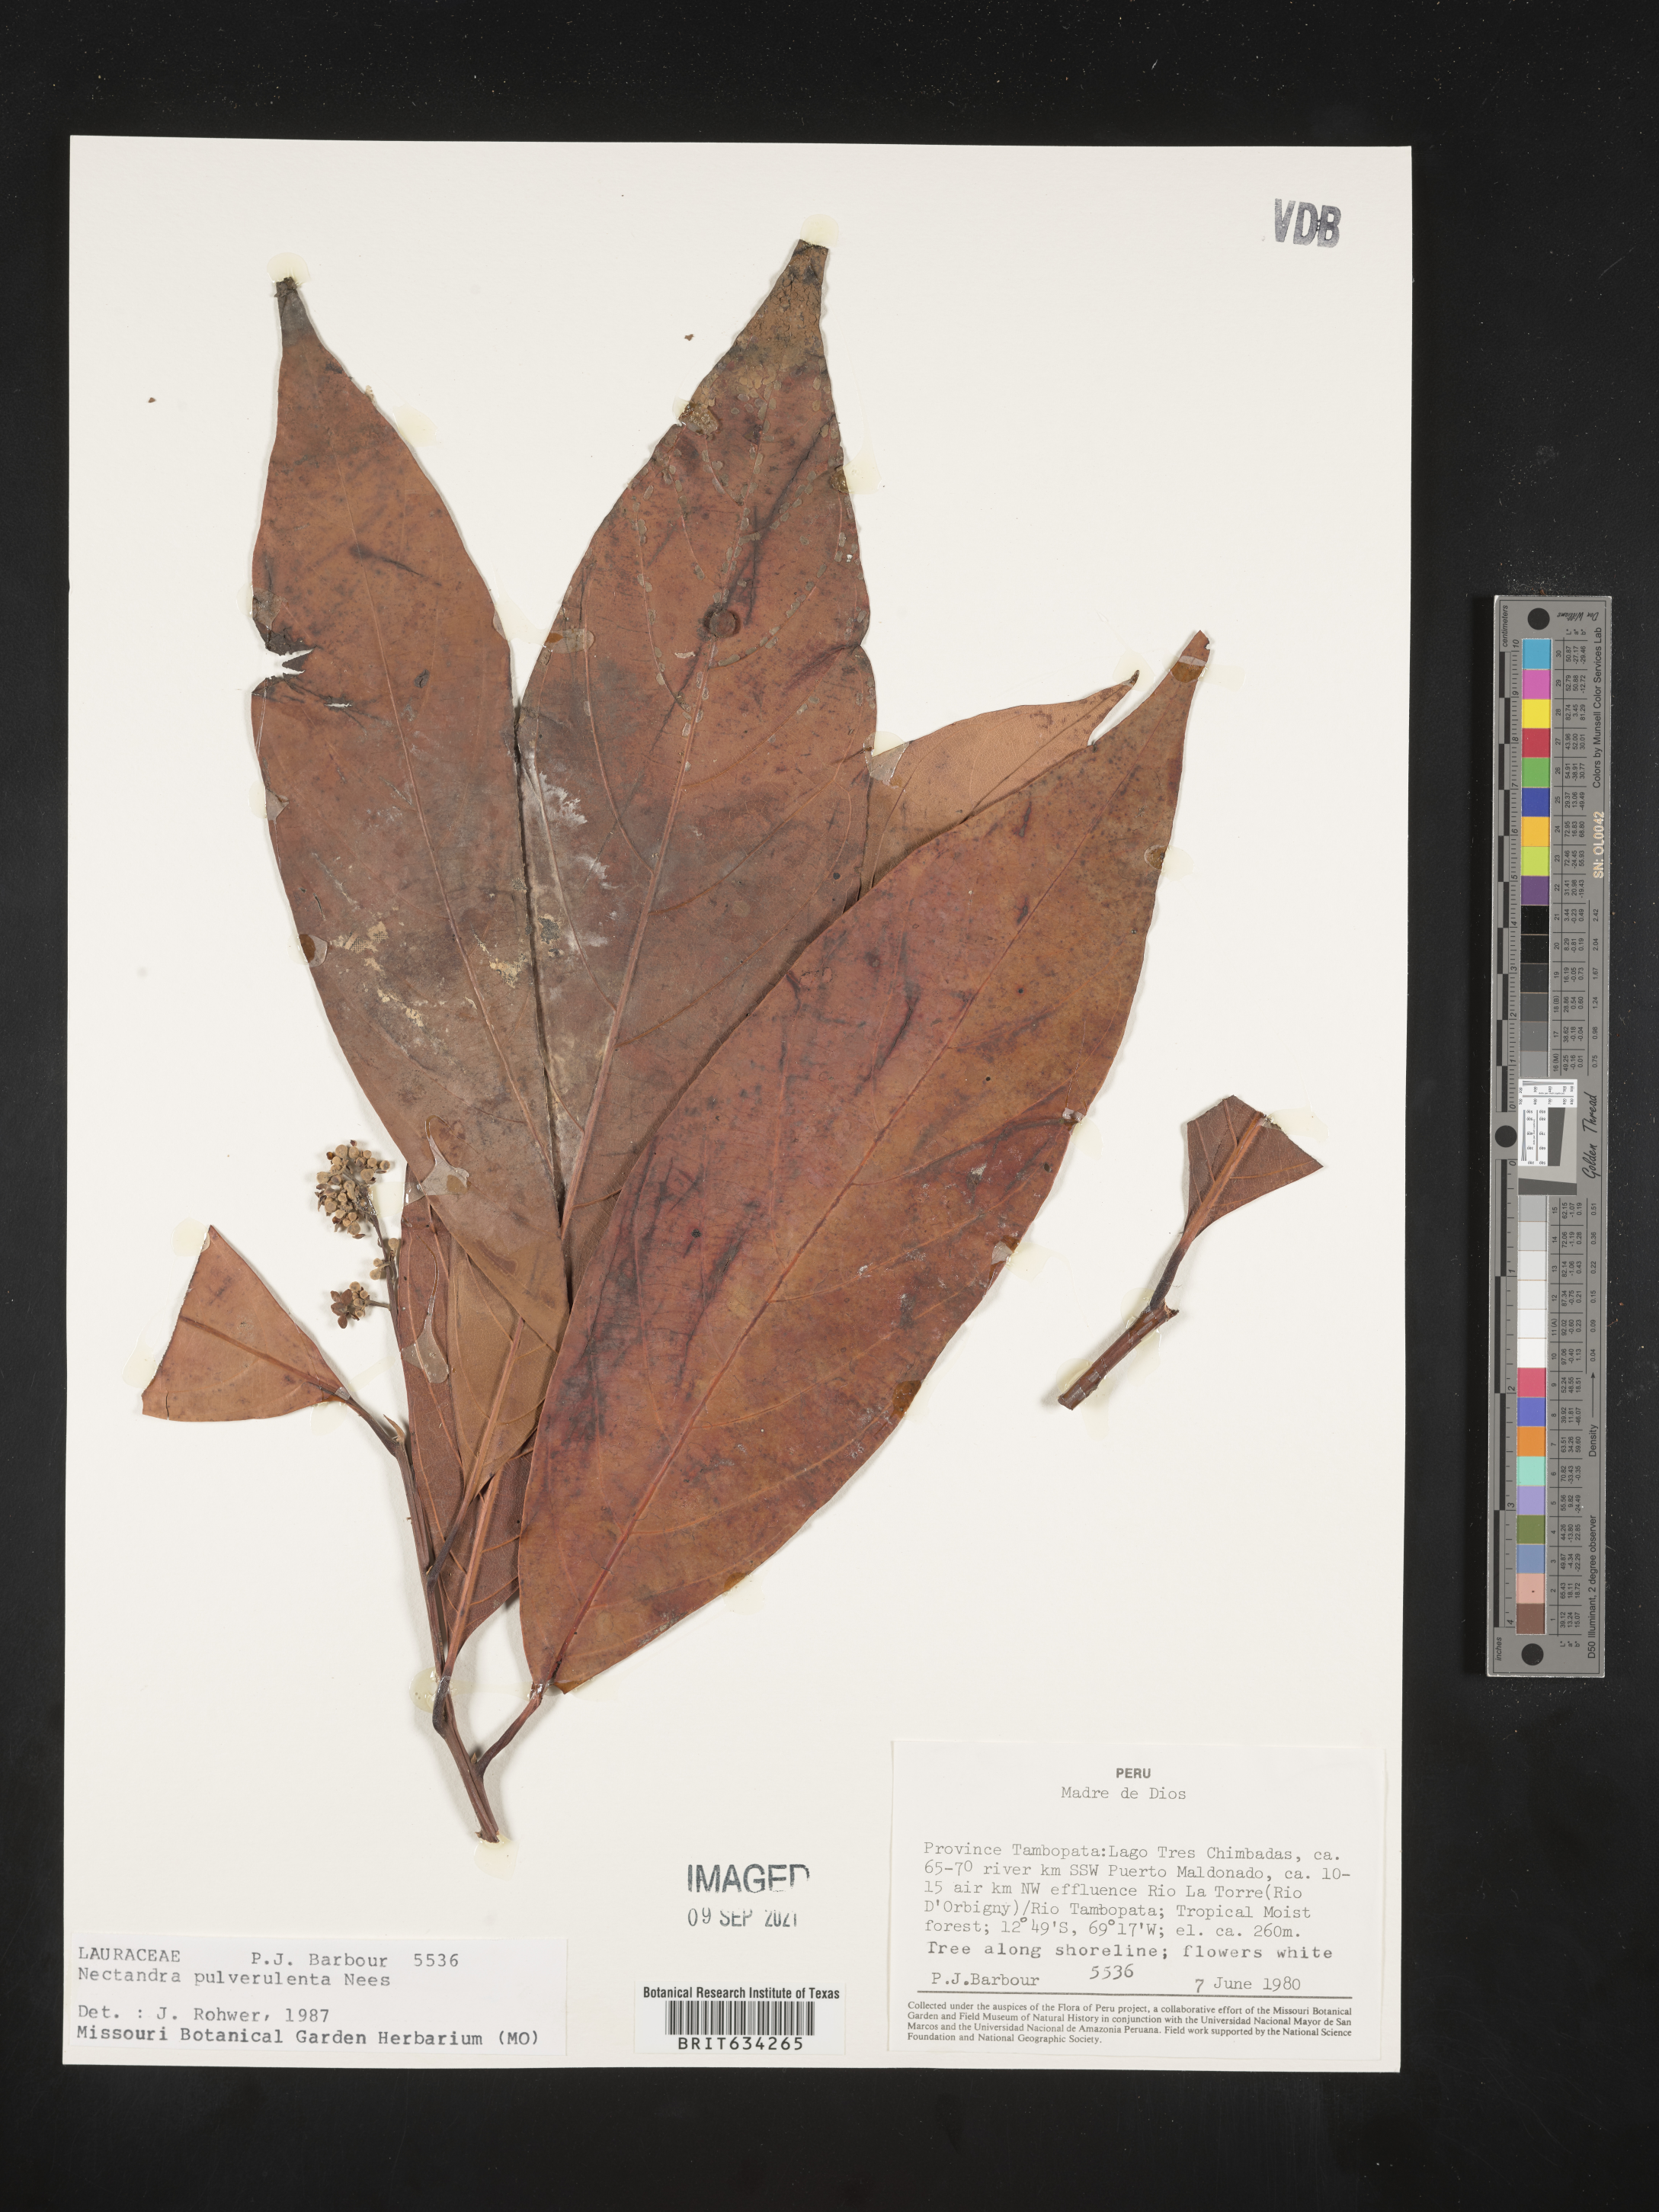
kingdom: Plantae
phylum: Tracheophyta
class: Magnoliopsida
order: Laurales
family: Lauraceae
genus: Nectandra
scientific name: Nectandra
